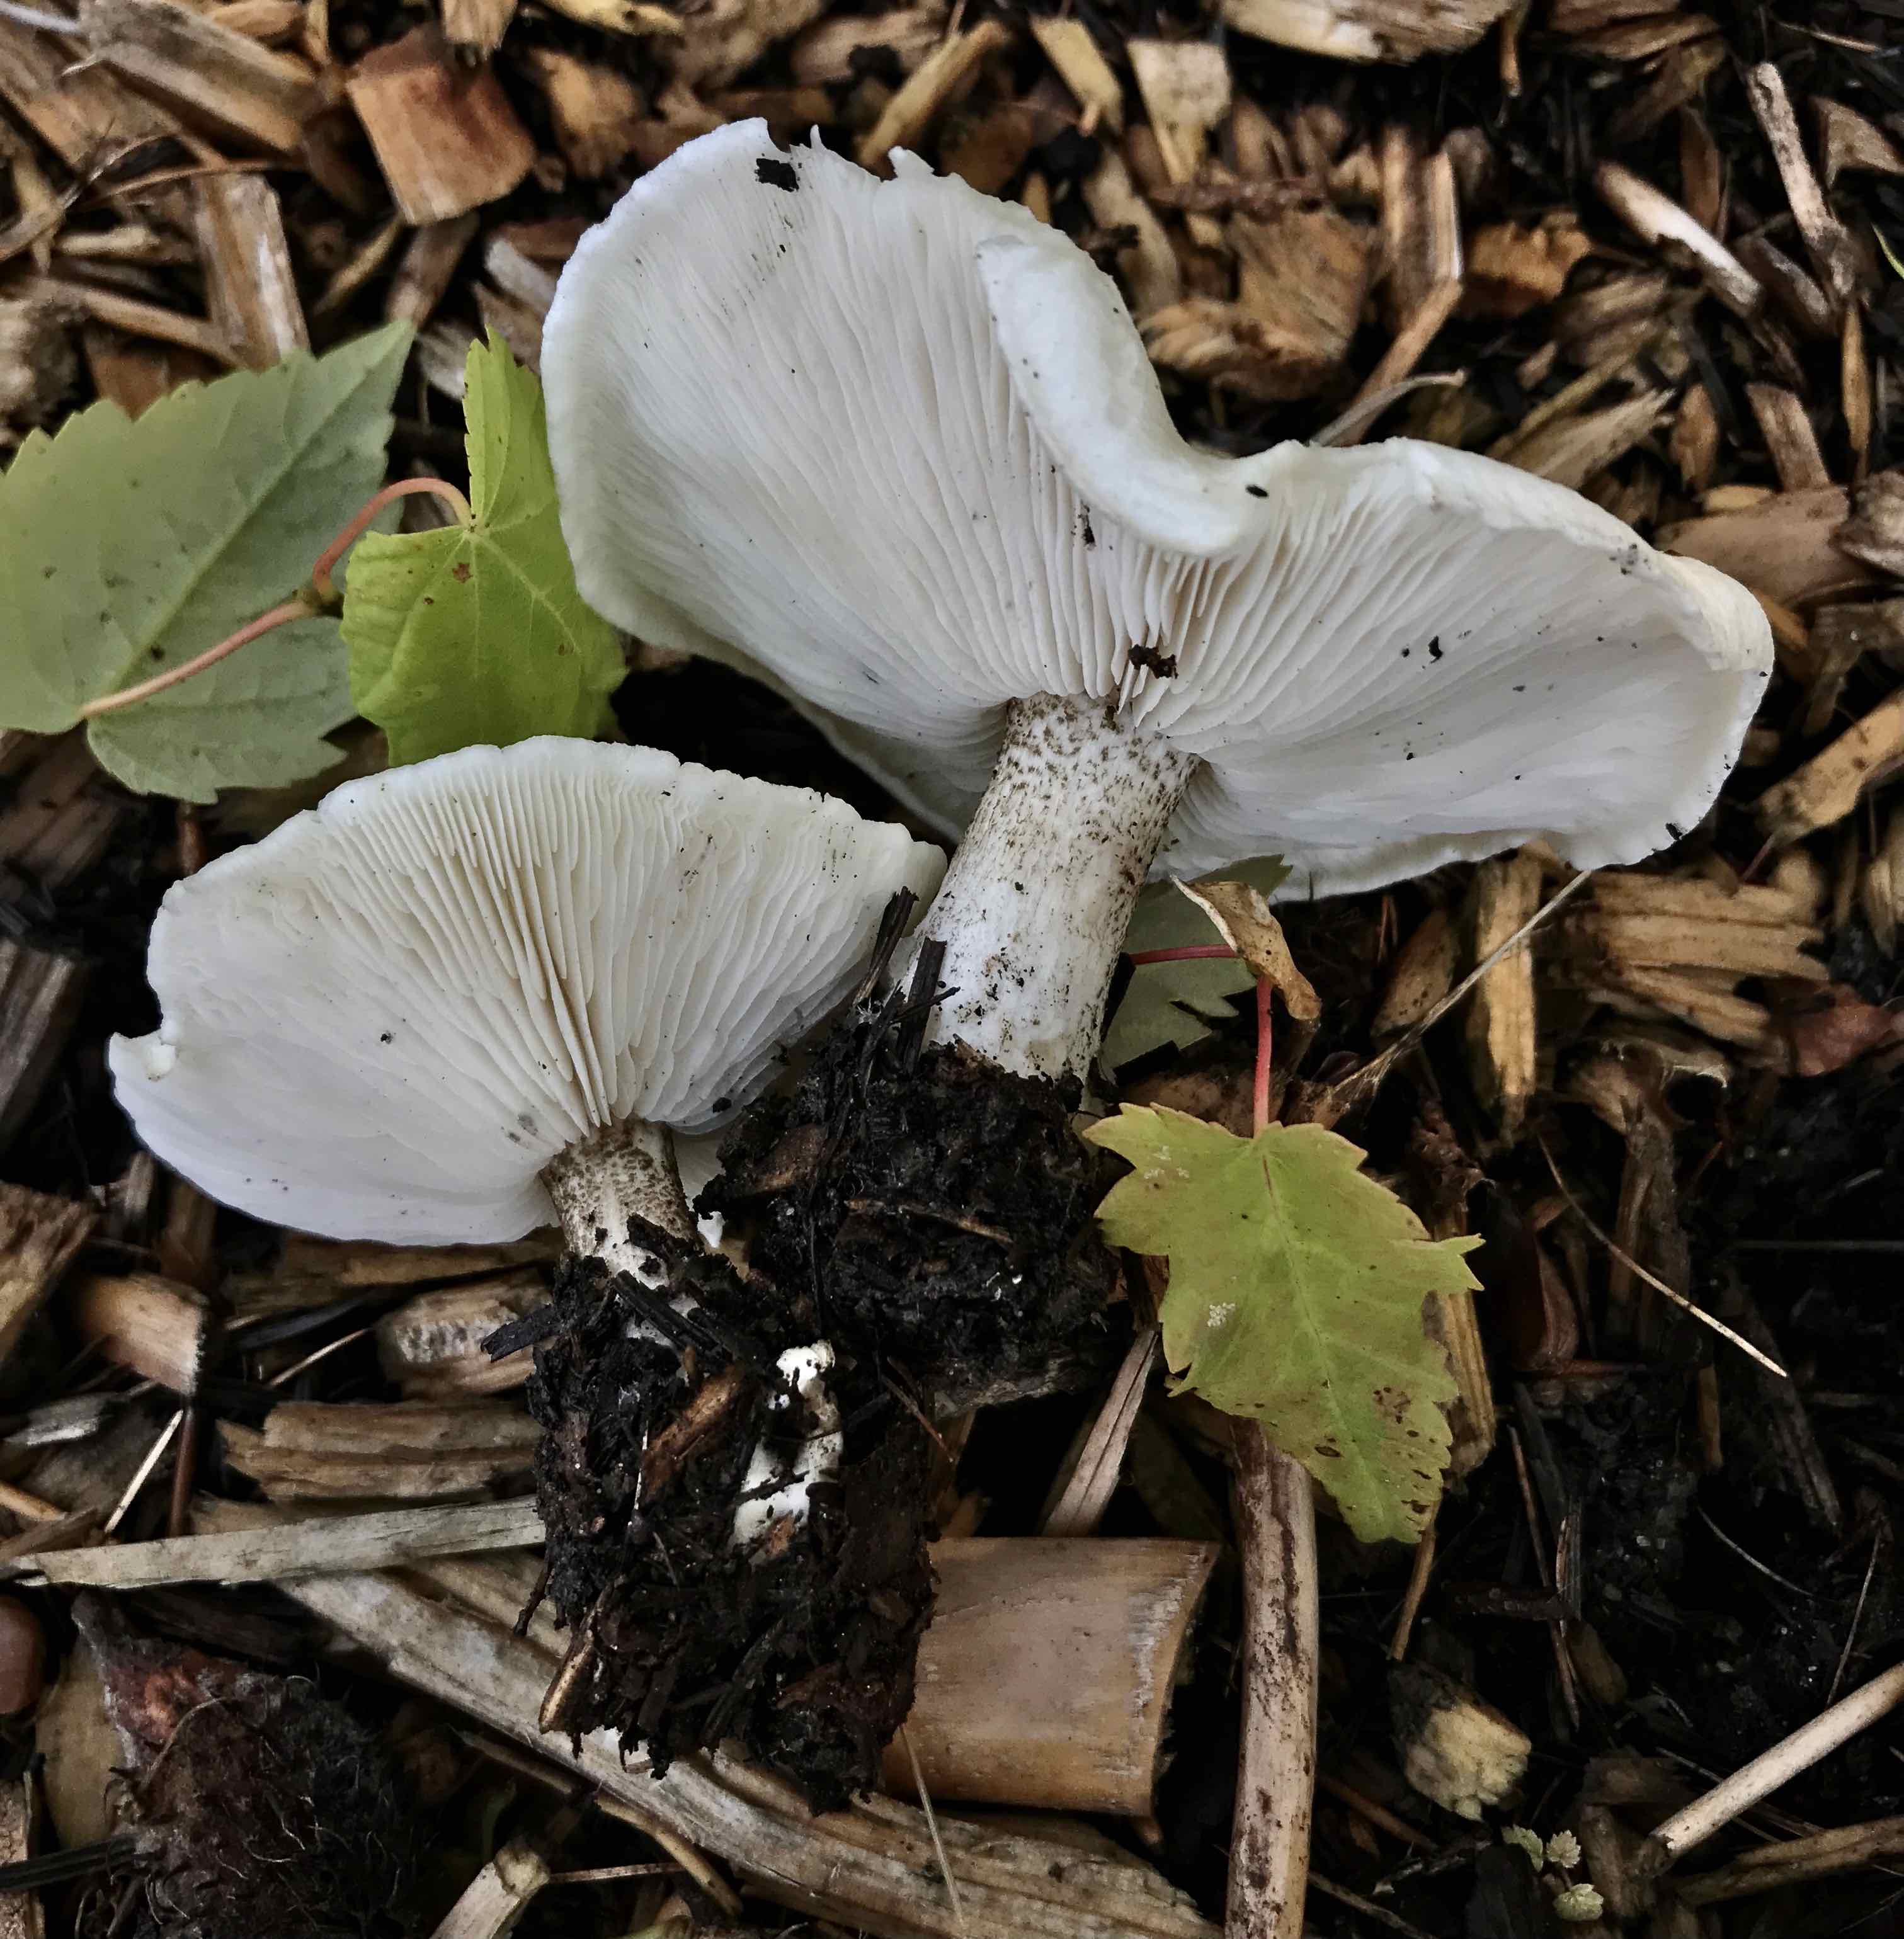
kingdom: Fungi
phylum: Basidiomycota
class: Agaricomycetes
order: Agaricales
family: Tricholomataceae
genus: Melanoleuca
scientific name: Melanoleuca verrucipes
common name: rufodet munkehat
